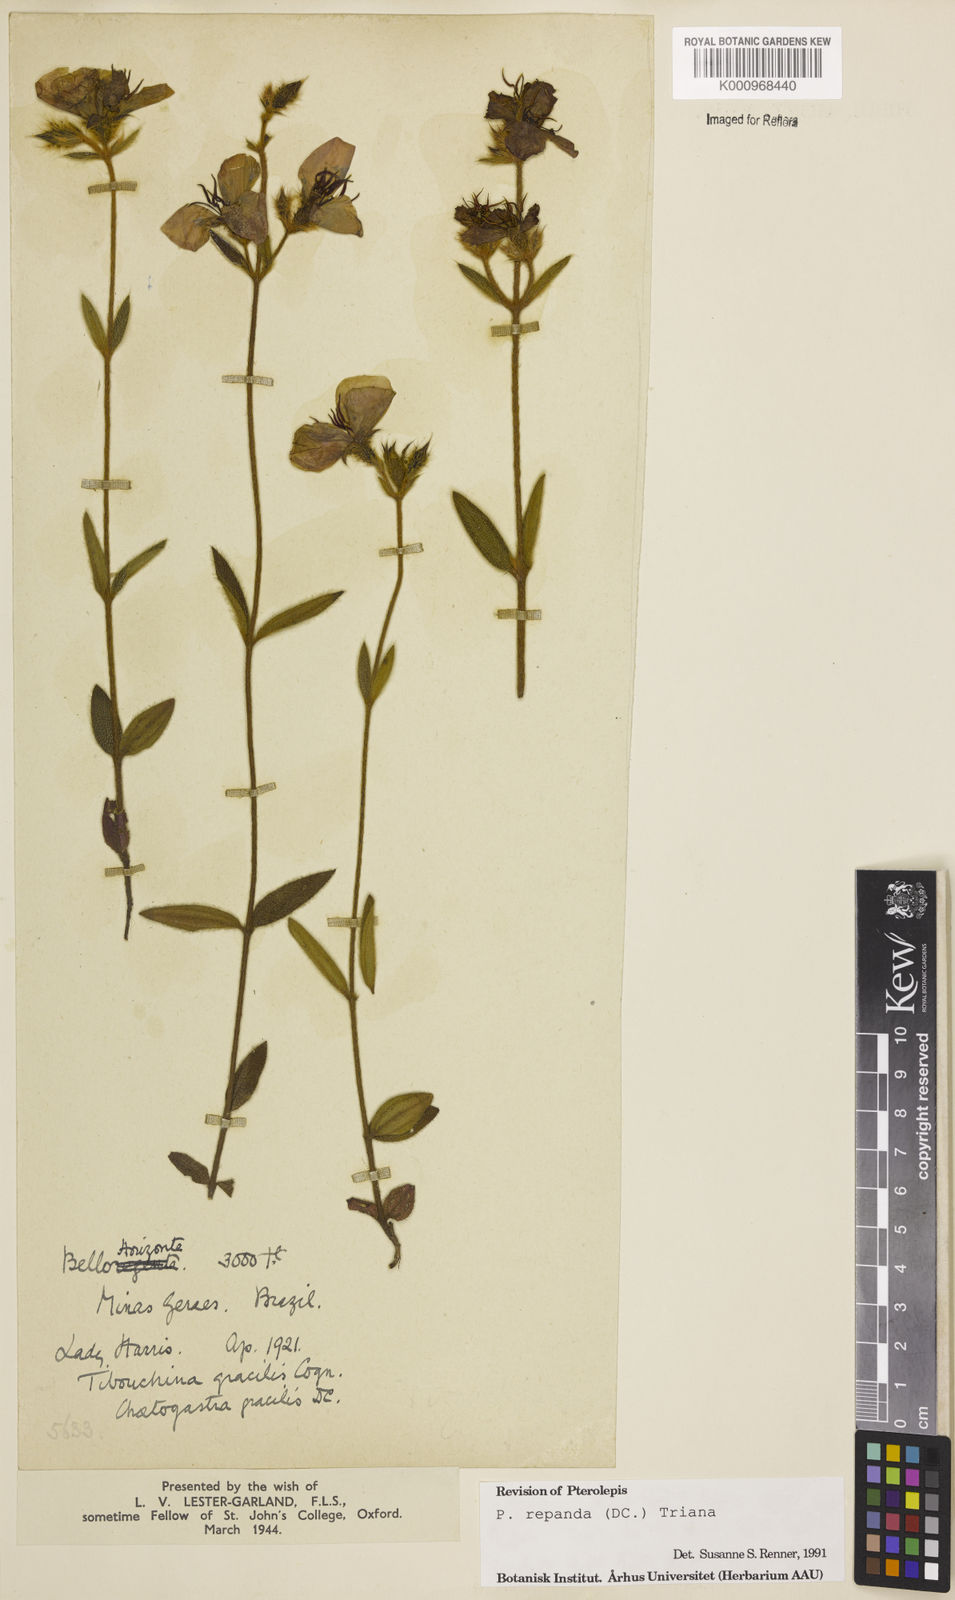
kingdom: Plantae
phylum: Tracheophyta
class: Magnoliopsida
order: Myrtales
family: Melastomataceae
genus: Pterolepis
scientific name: Pterolepis repanda
